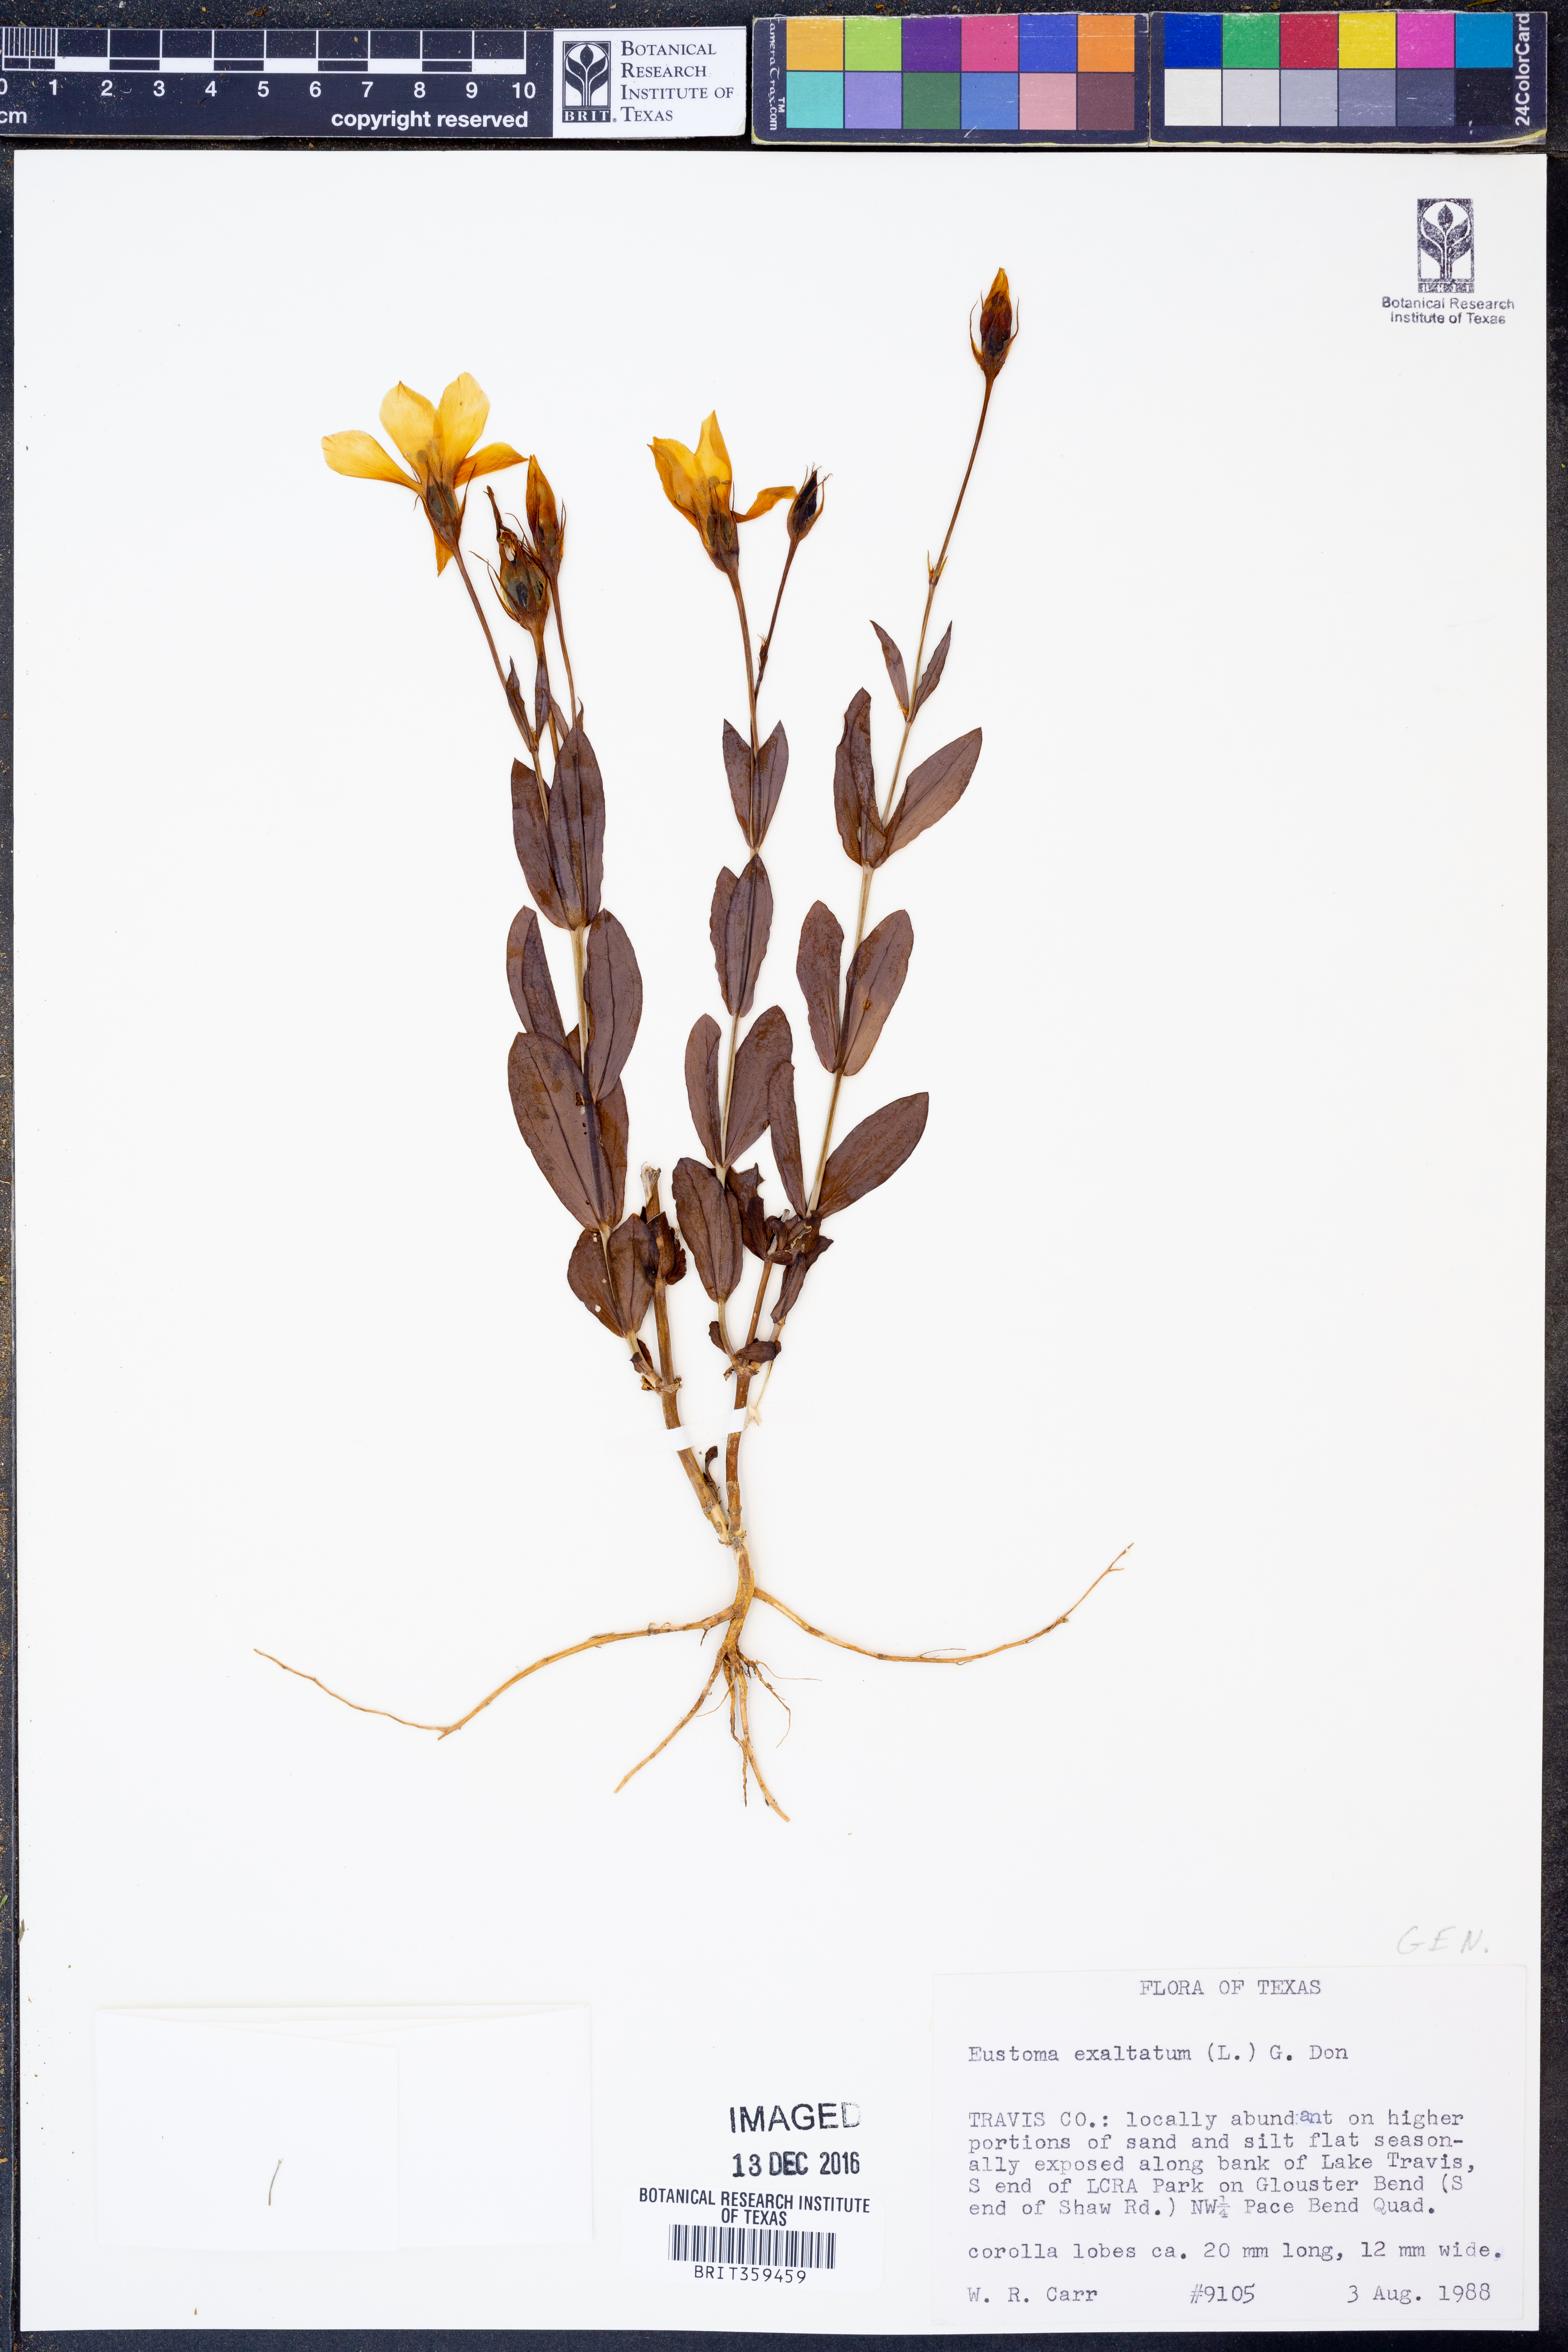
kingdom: Plantae
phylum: Tracheophyta
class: Magnoliopsida
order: Gentianales
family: Gentianaceae
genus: Eustoma
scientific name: Eustoma exaltatum
